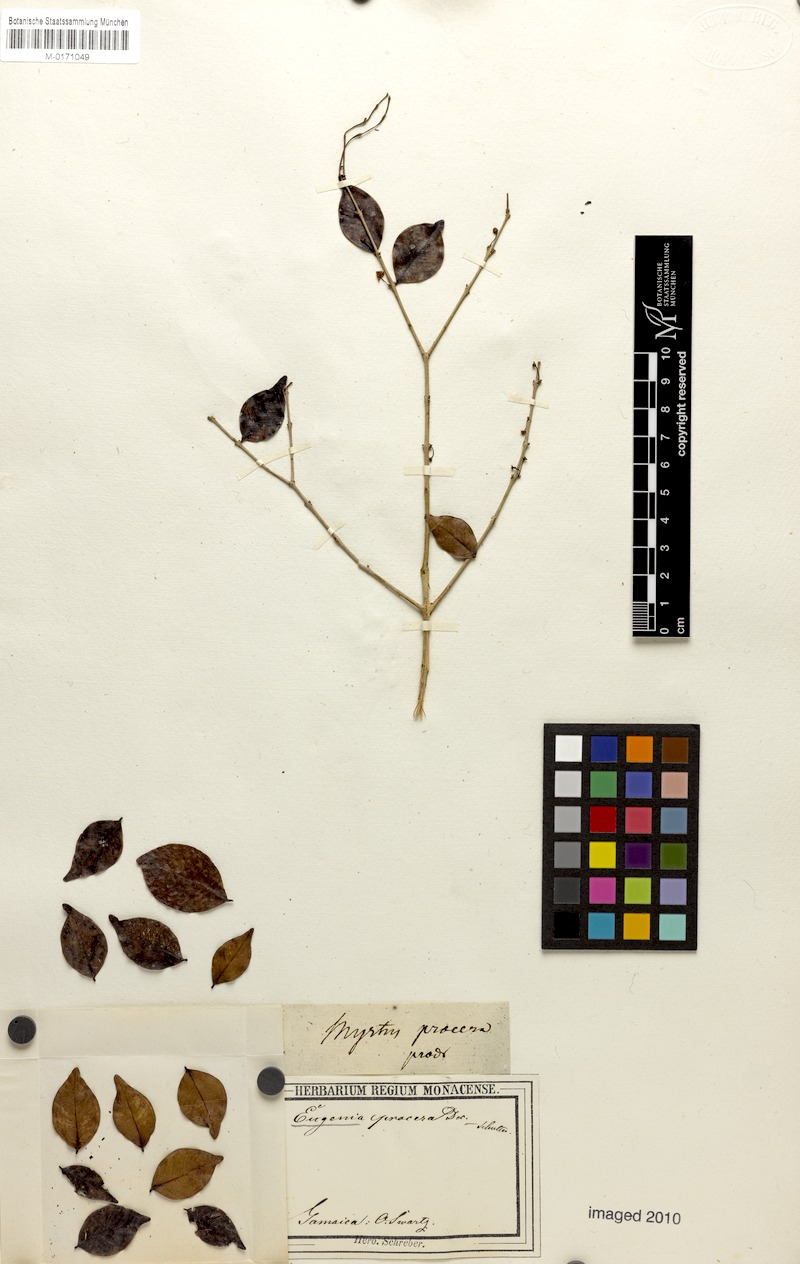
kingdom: Plantae
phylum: Tracheophyta
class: Magnoliopsida
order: Myrtales
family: Myrtaceae
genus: Eugenia
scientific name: Eugenia procera
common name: Bastard blackberry
